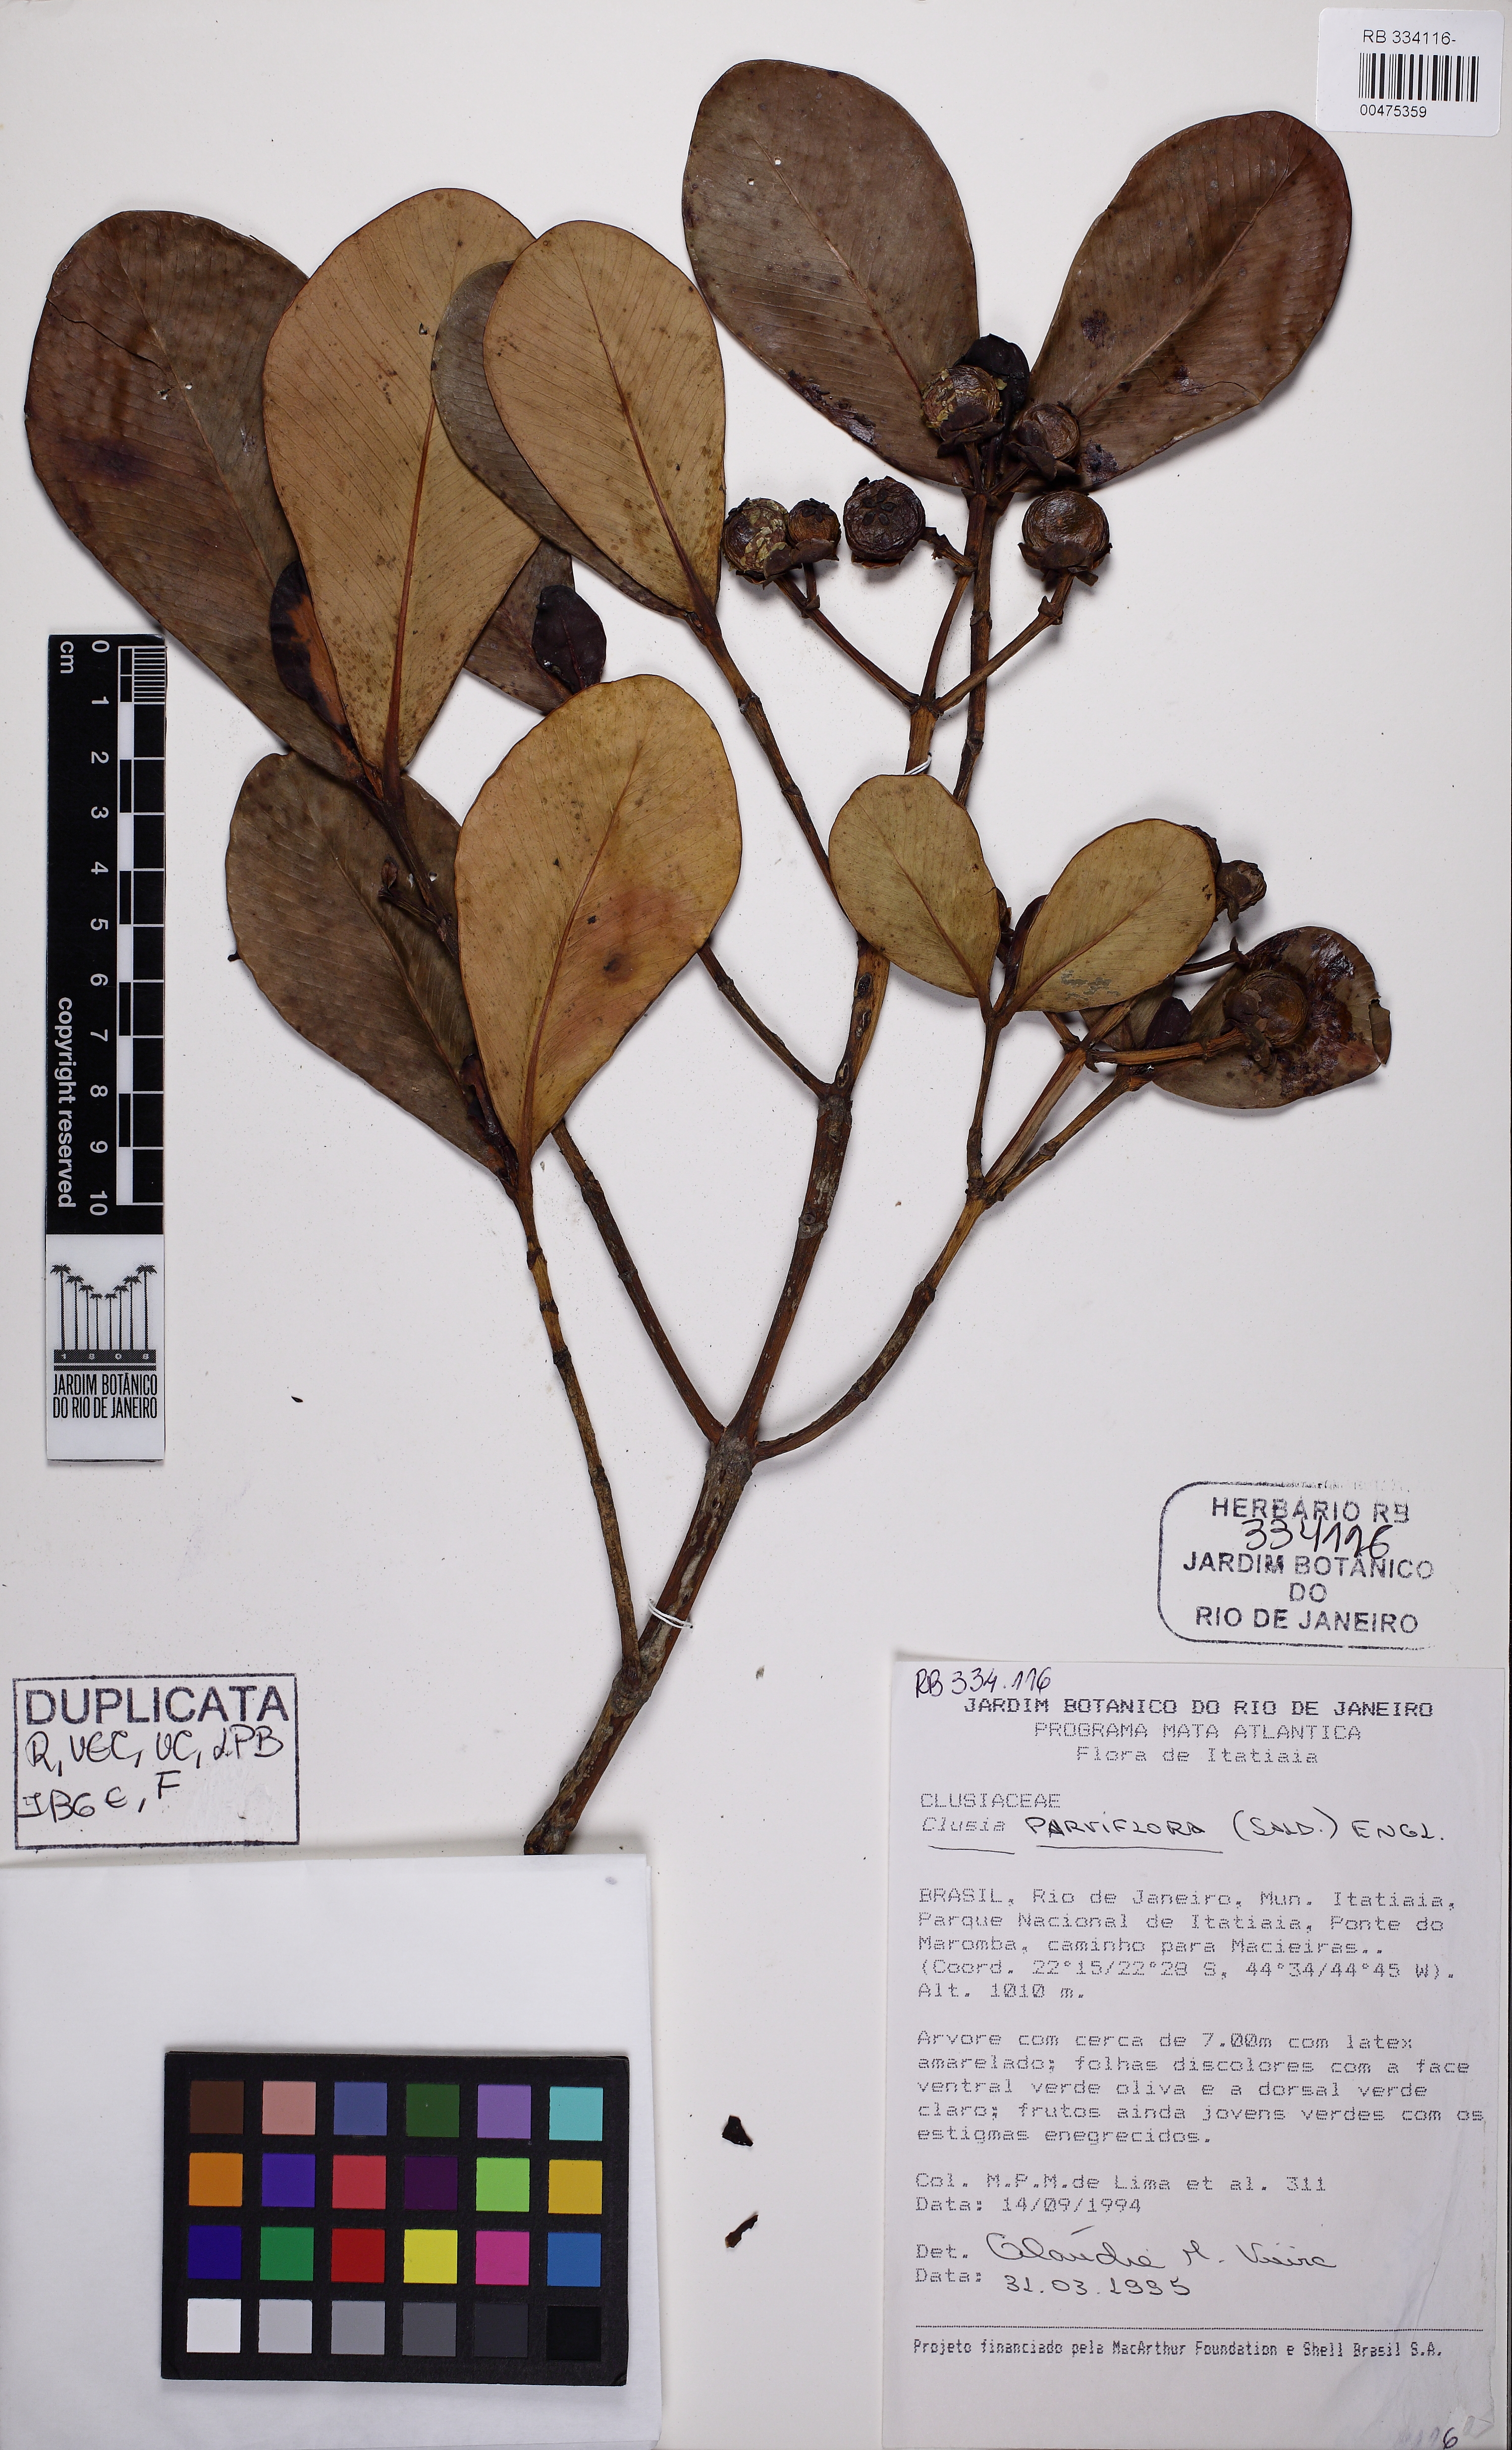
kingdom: Plantae
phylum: Tracheophyta
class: Magnoliopsida
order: Malpighiales
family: Clusiaceae
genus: Clusia
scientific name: Clusia criuva
